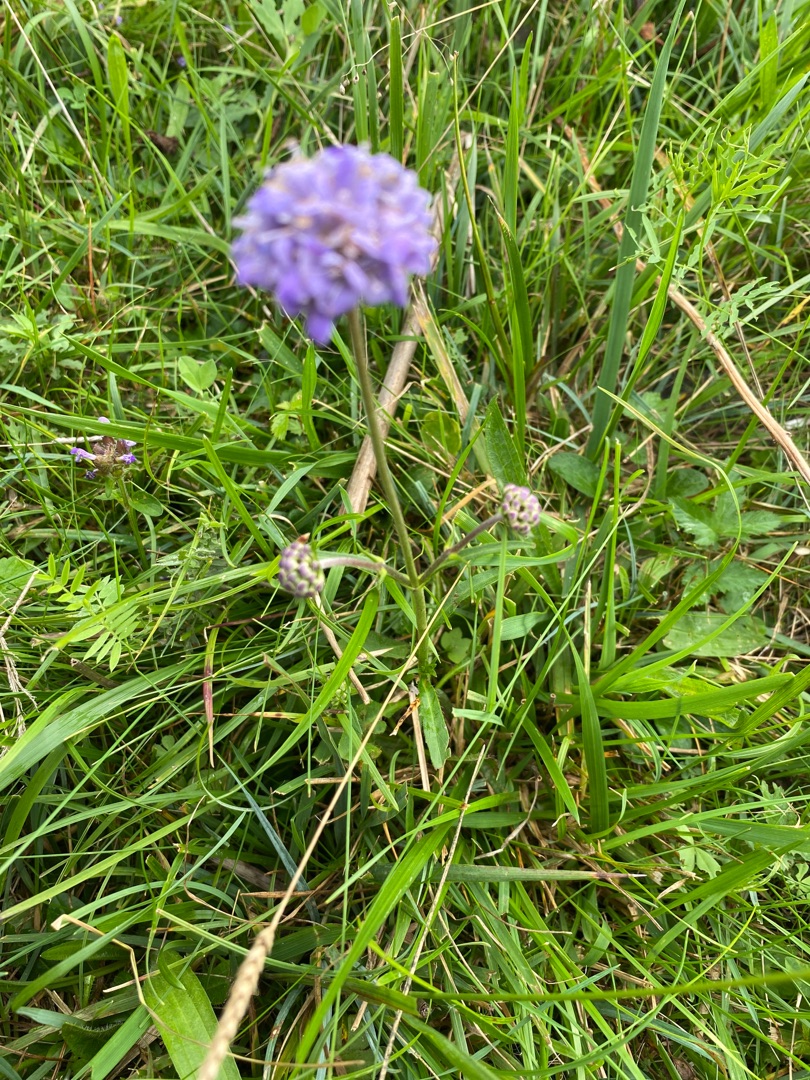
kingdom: Plantae
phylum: Tracheophyta
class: Magnoliopsida
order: Dipsacales
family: Caprifoliaceae
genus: Succisa
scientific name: Succisa pratensis
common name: Djævelsbid
